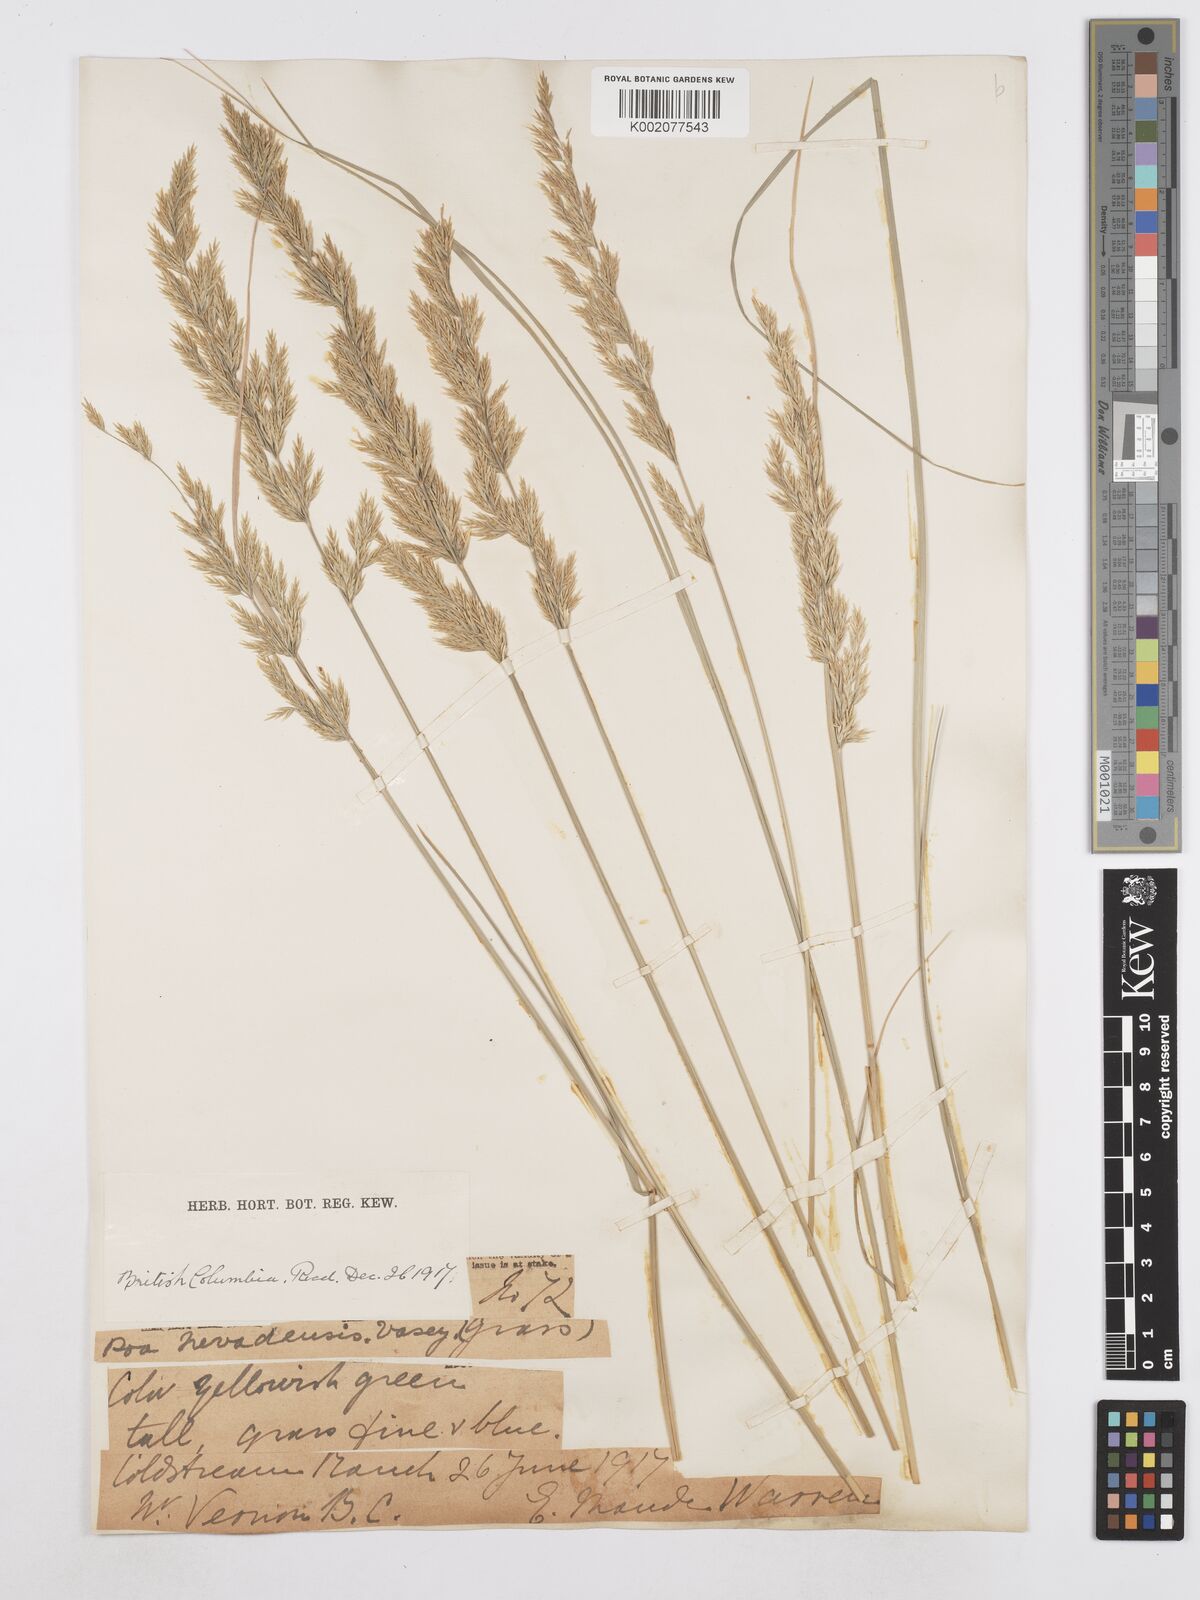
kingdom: Plantae
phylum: Tracheophyta
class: Liliopsida
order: Poales
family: Poaceae
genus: Poa
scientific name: Poa secunda
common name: Sandberg bluegrass
